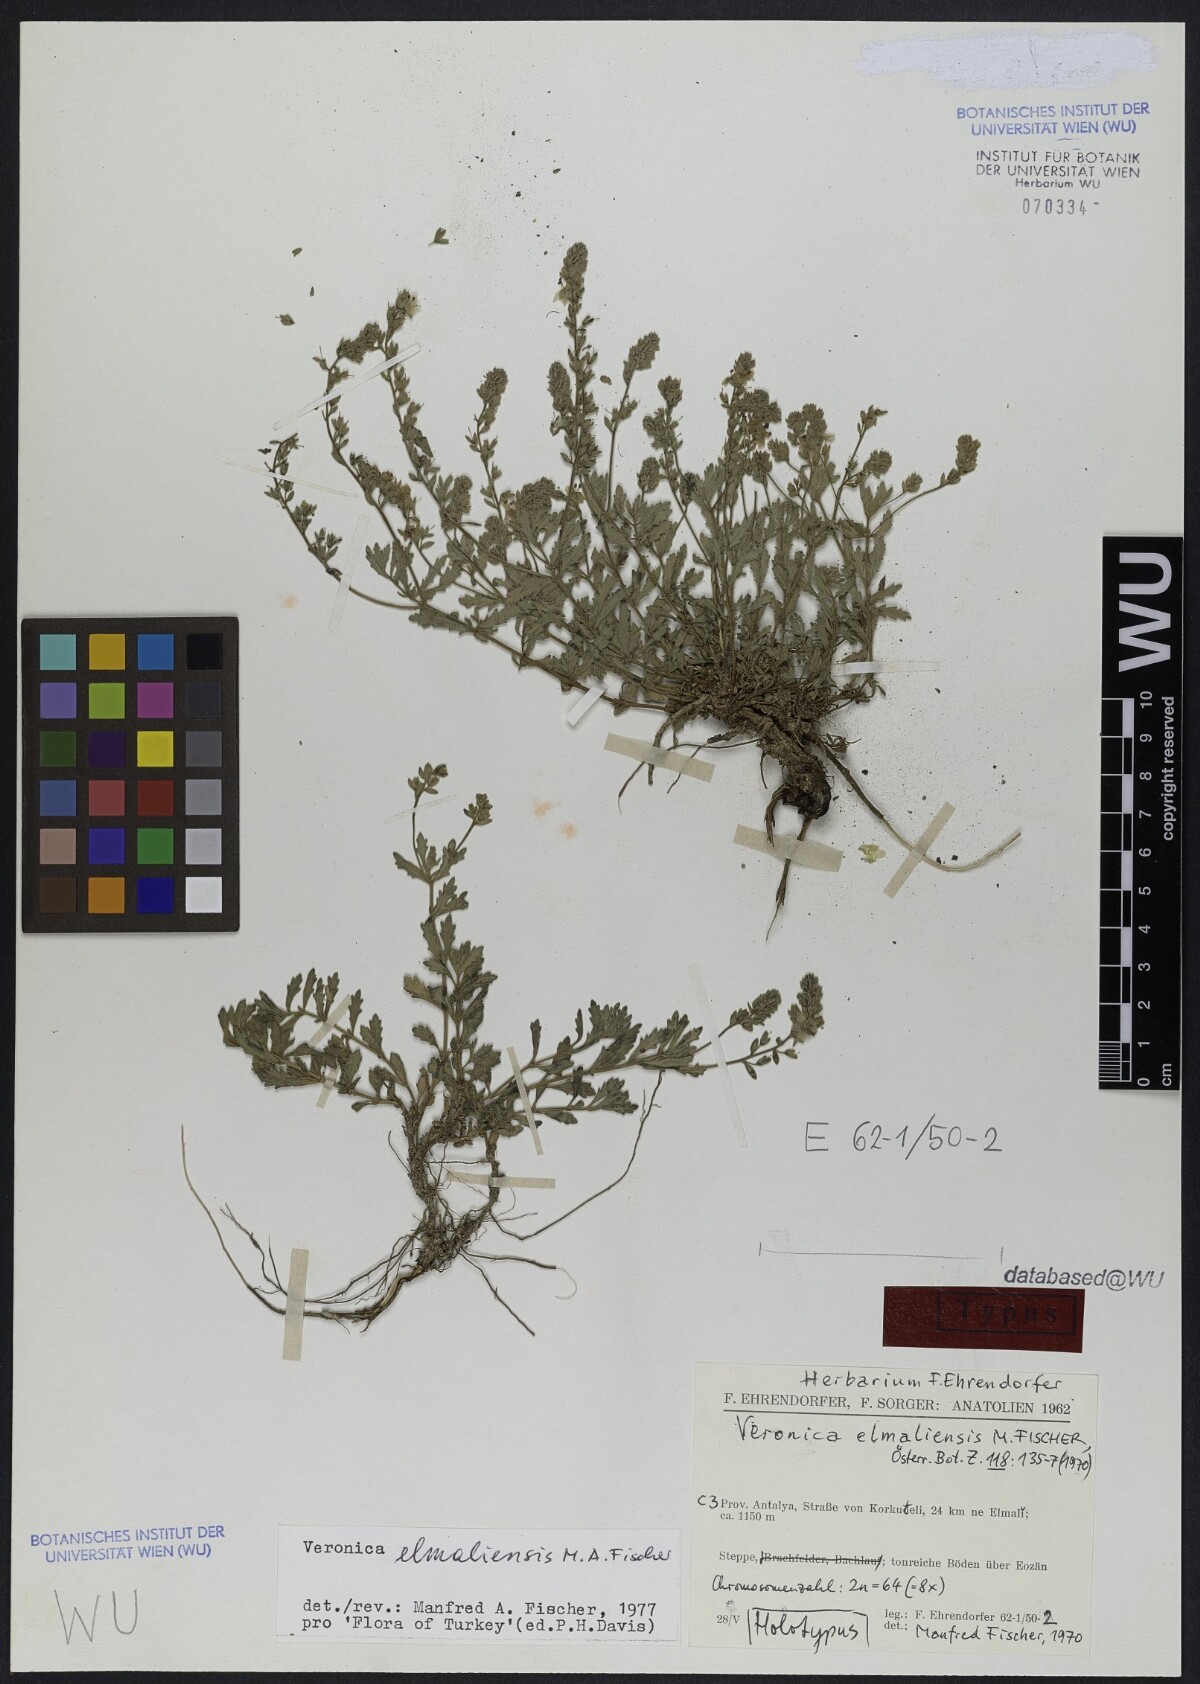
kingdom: Plantae
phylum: Tracheophyta
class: Magnoliopsida
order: Lamiales
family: Plantaginaceae
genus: Veronica
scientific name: Veronica elmaliensis
